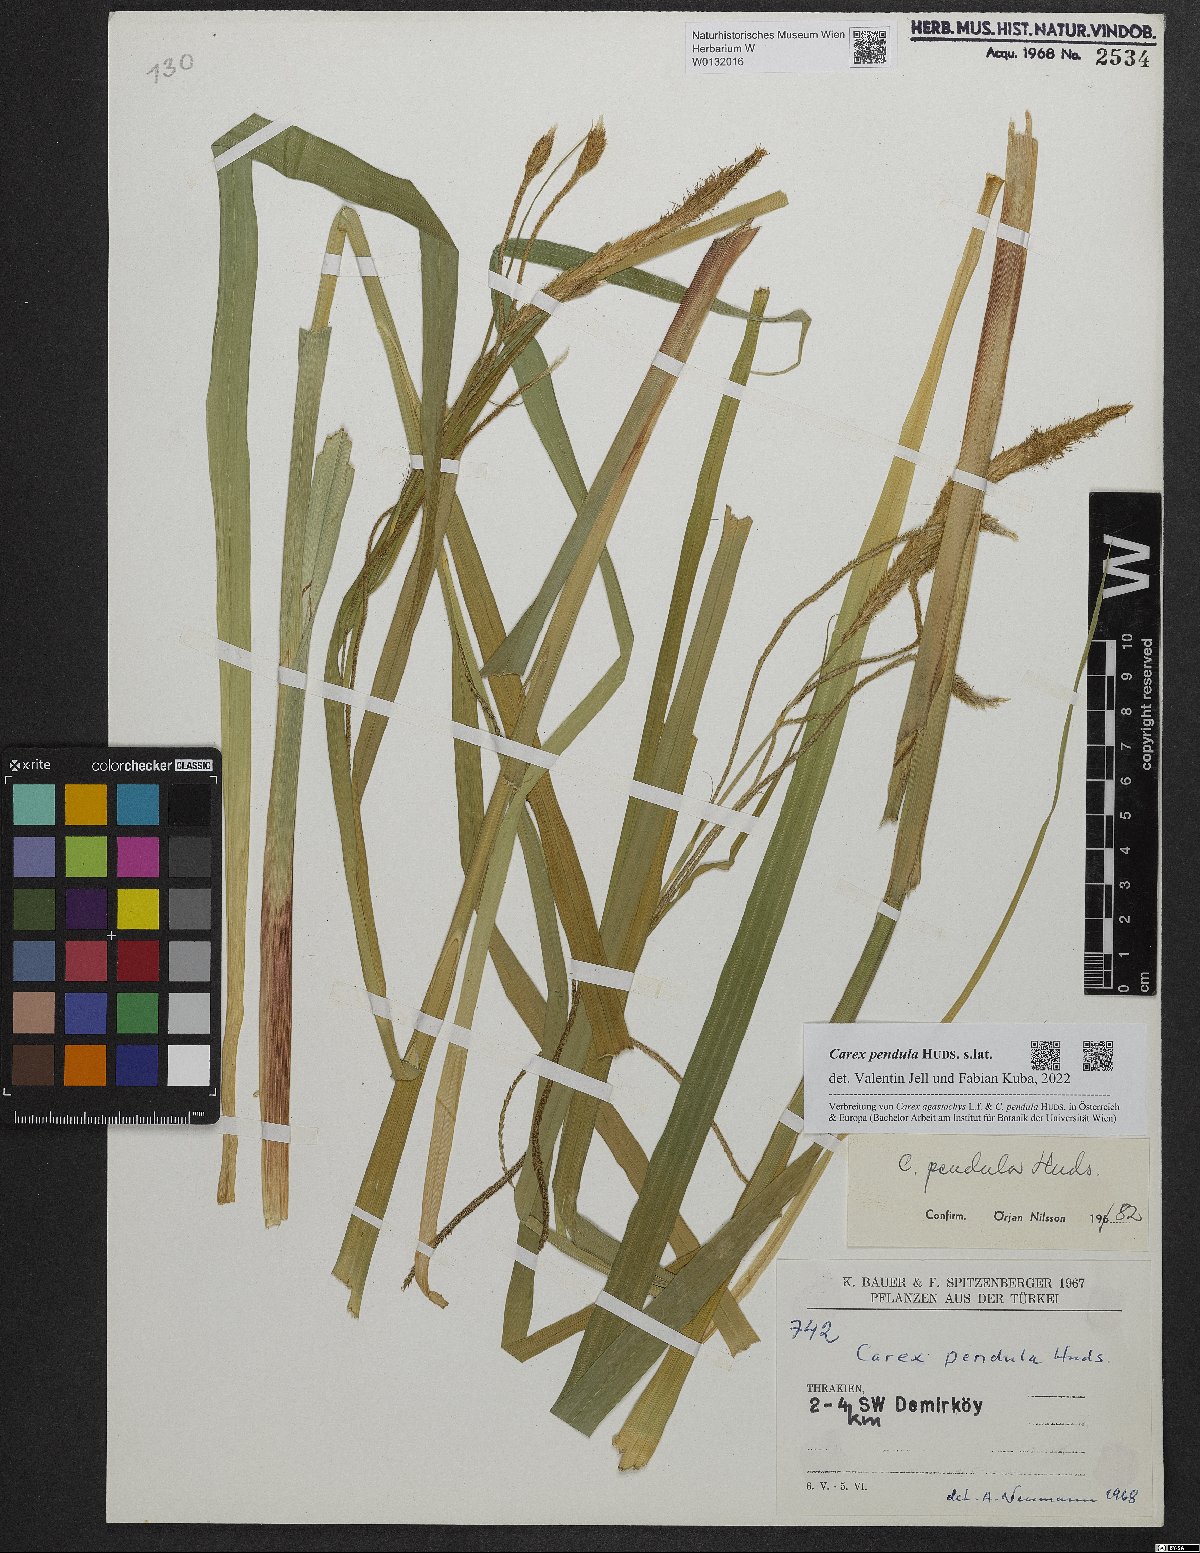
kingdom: Plantae
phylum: Tracheophyta
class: Liliopsida
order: Poales
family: Cyperaceae
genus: Carex
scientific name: Carex pendula
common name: Pendulous sedge
